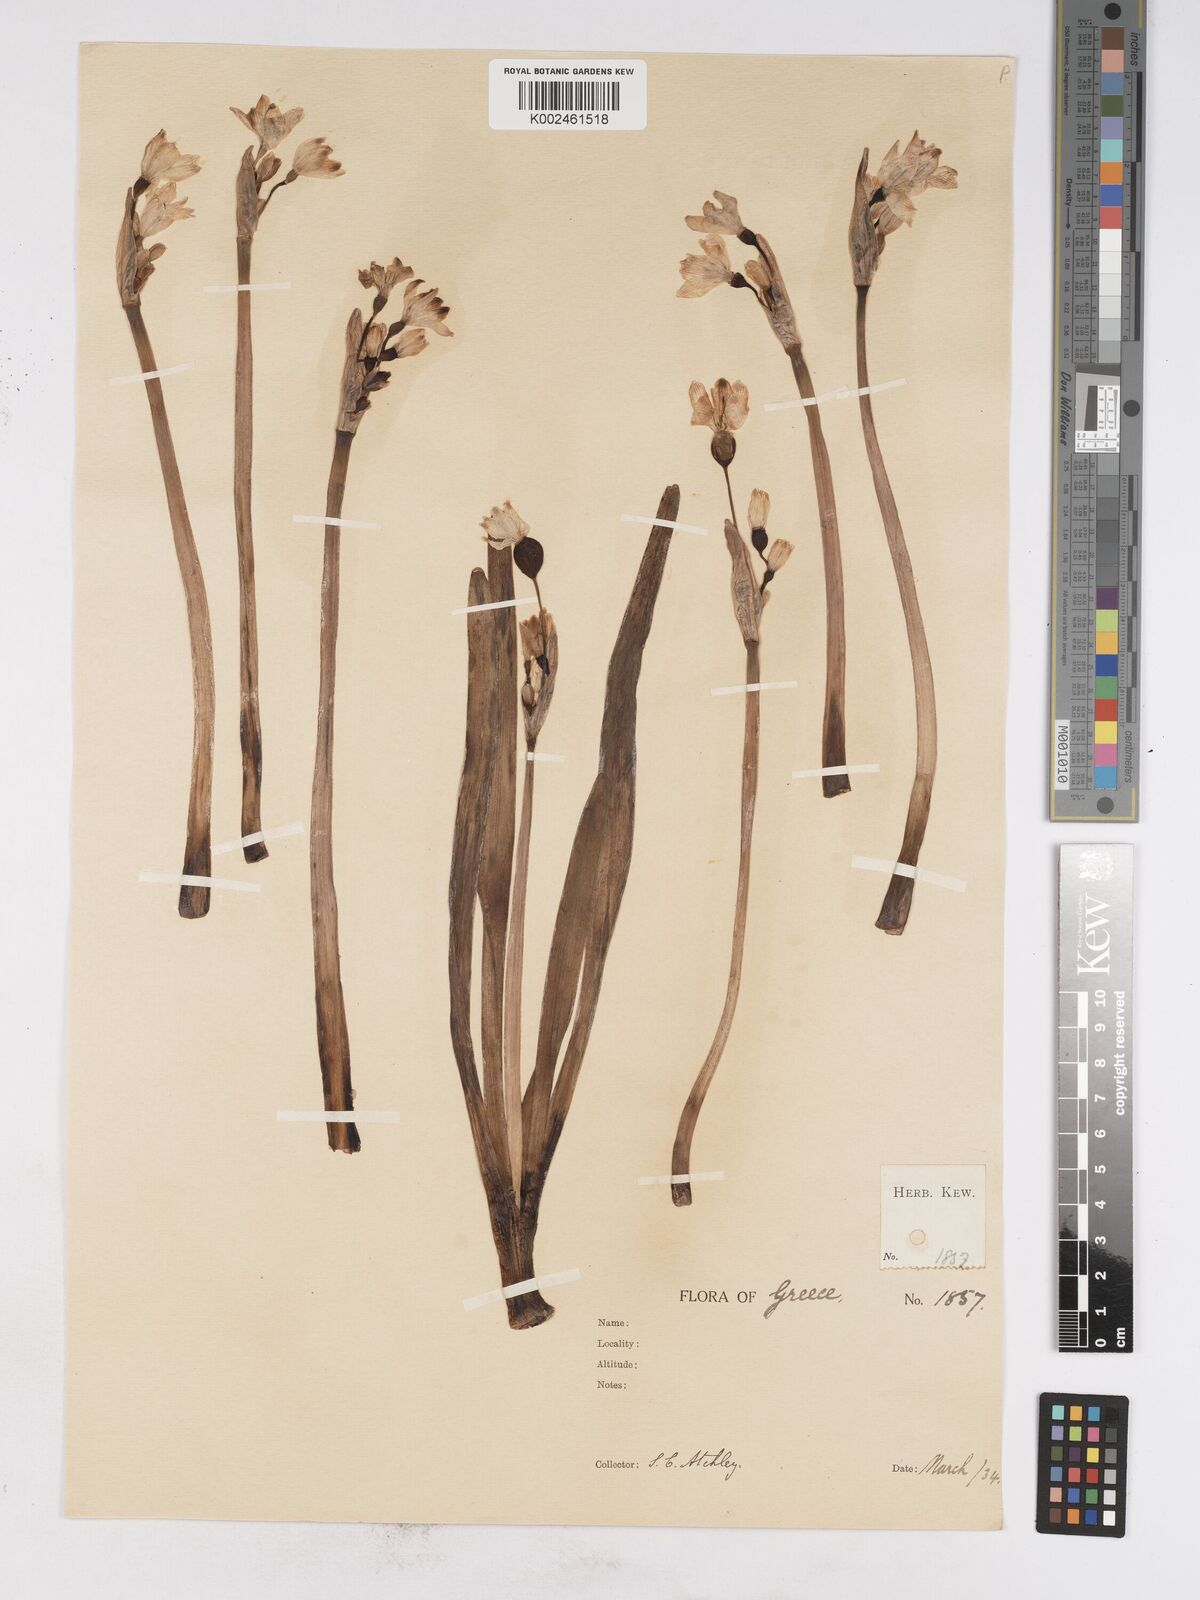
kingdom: Plantae
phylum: Tracheophyta
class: Liliopsida
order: Asparagales
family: Amaryllidaceae
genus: Leucojum
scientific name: Leucojum vernum
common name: Spring snowflake
